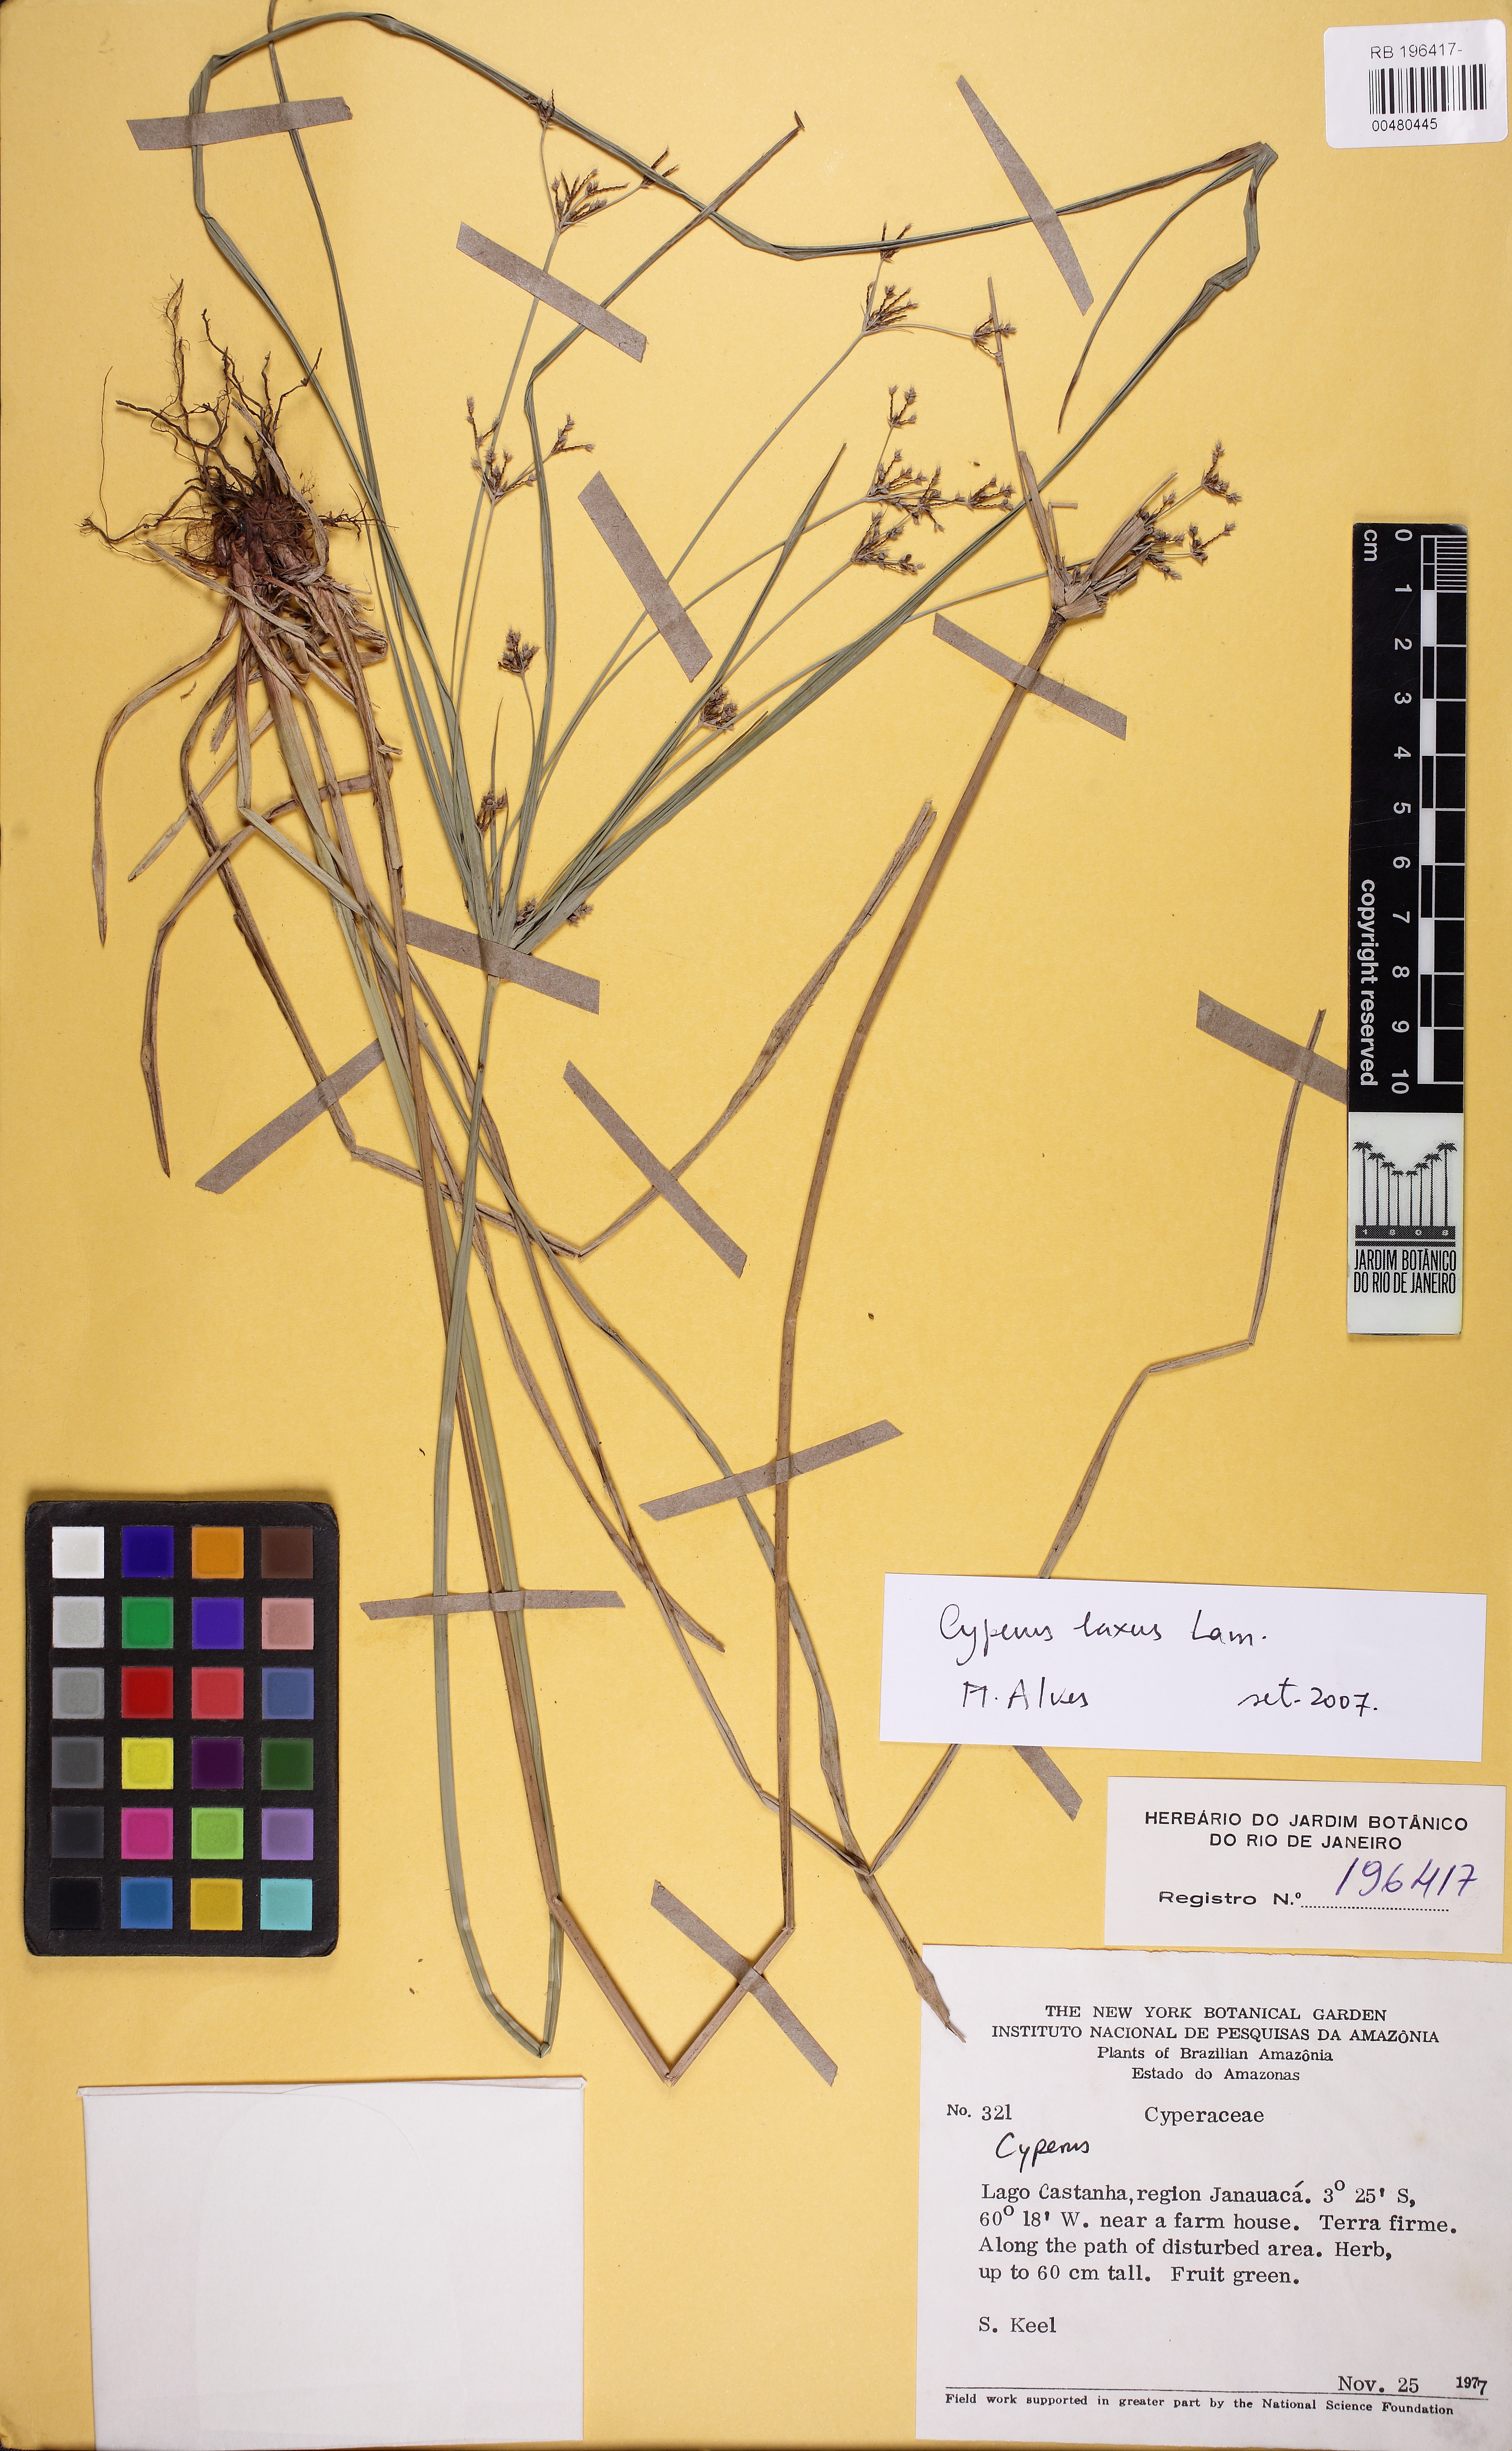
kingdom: Plantae
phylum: Tracheophyta
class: Liliopsida
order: Poales
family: Cyperaceae
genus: Cyperus
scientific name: Cyperus laxus
